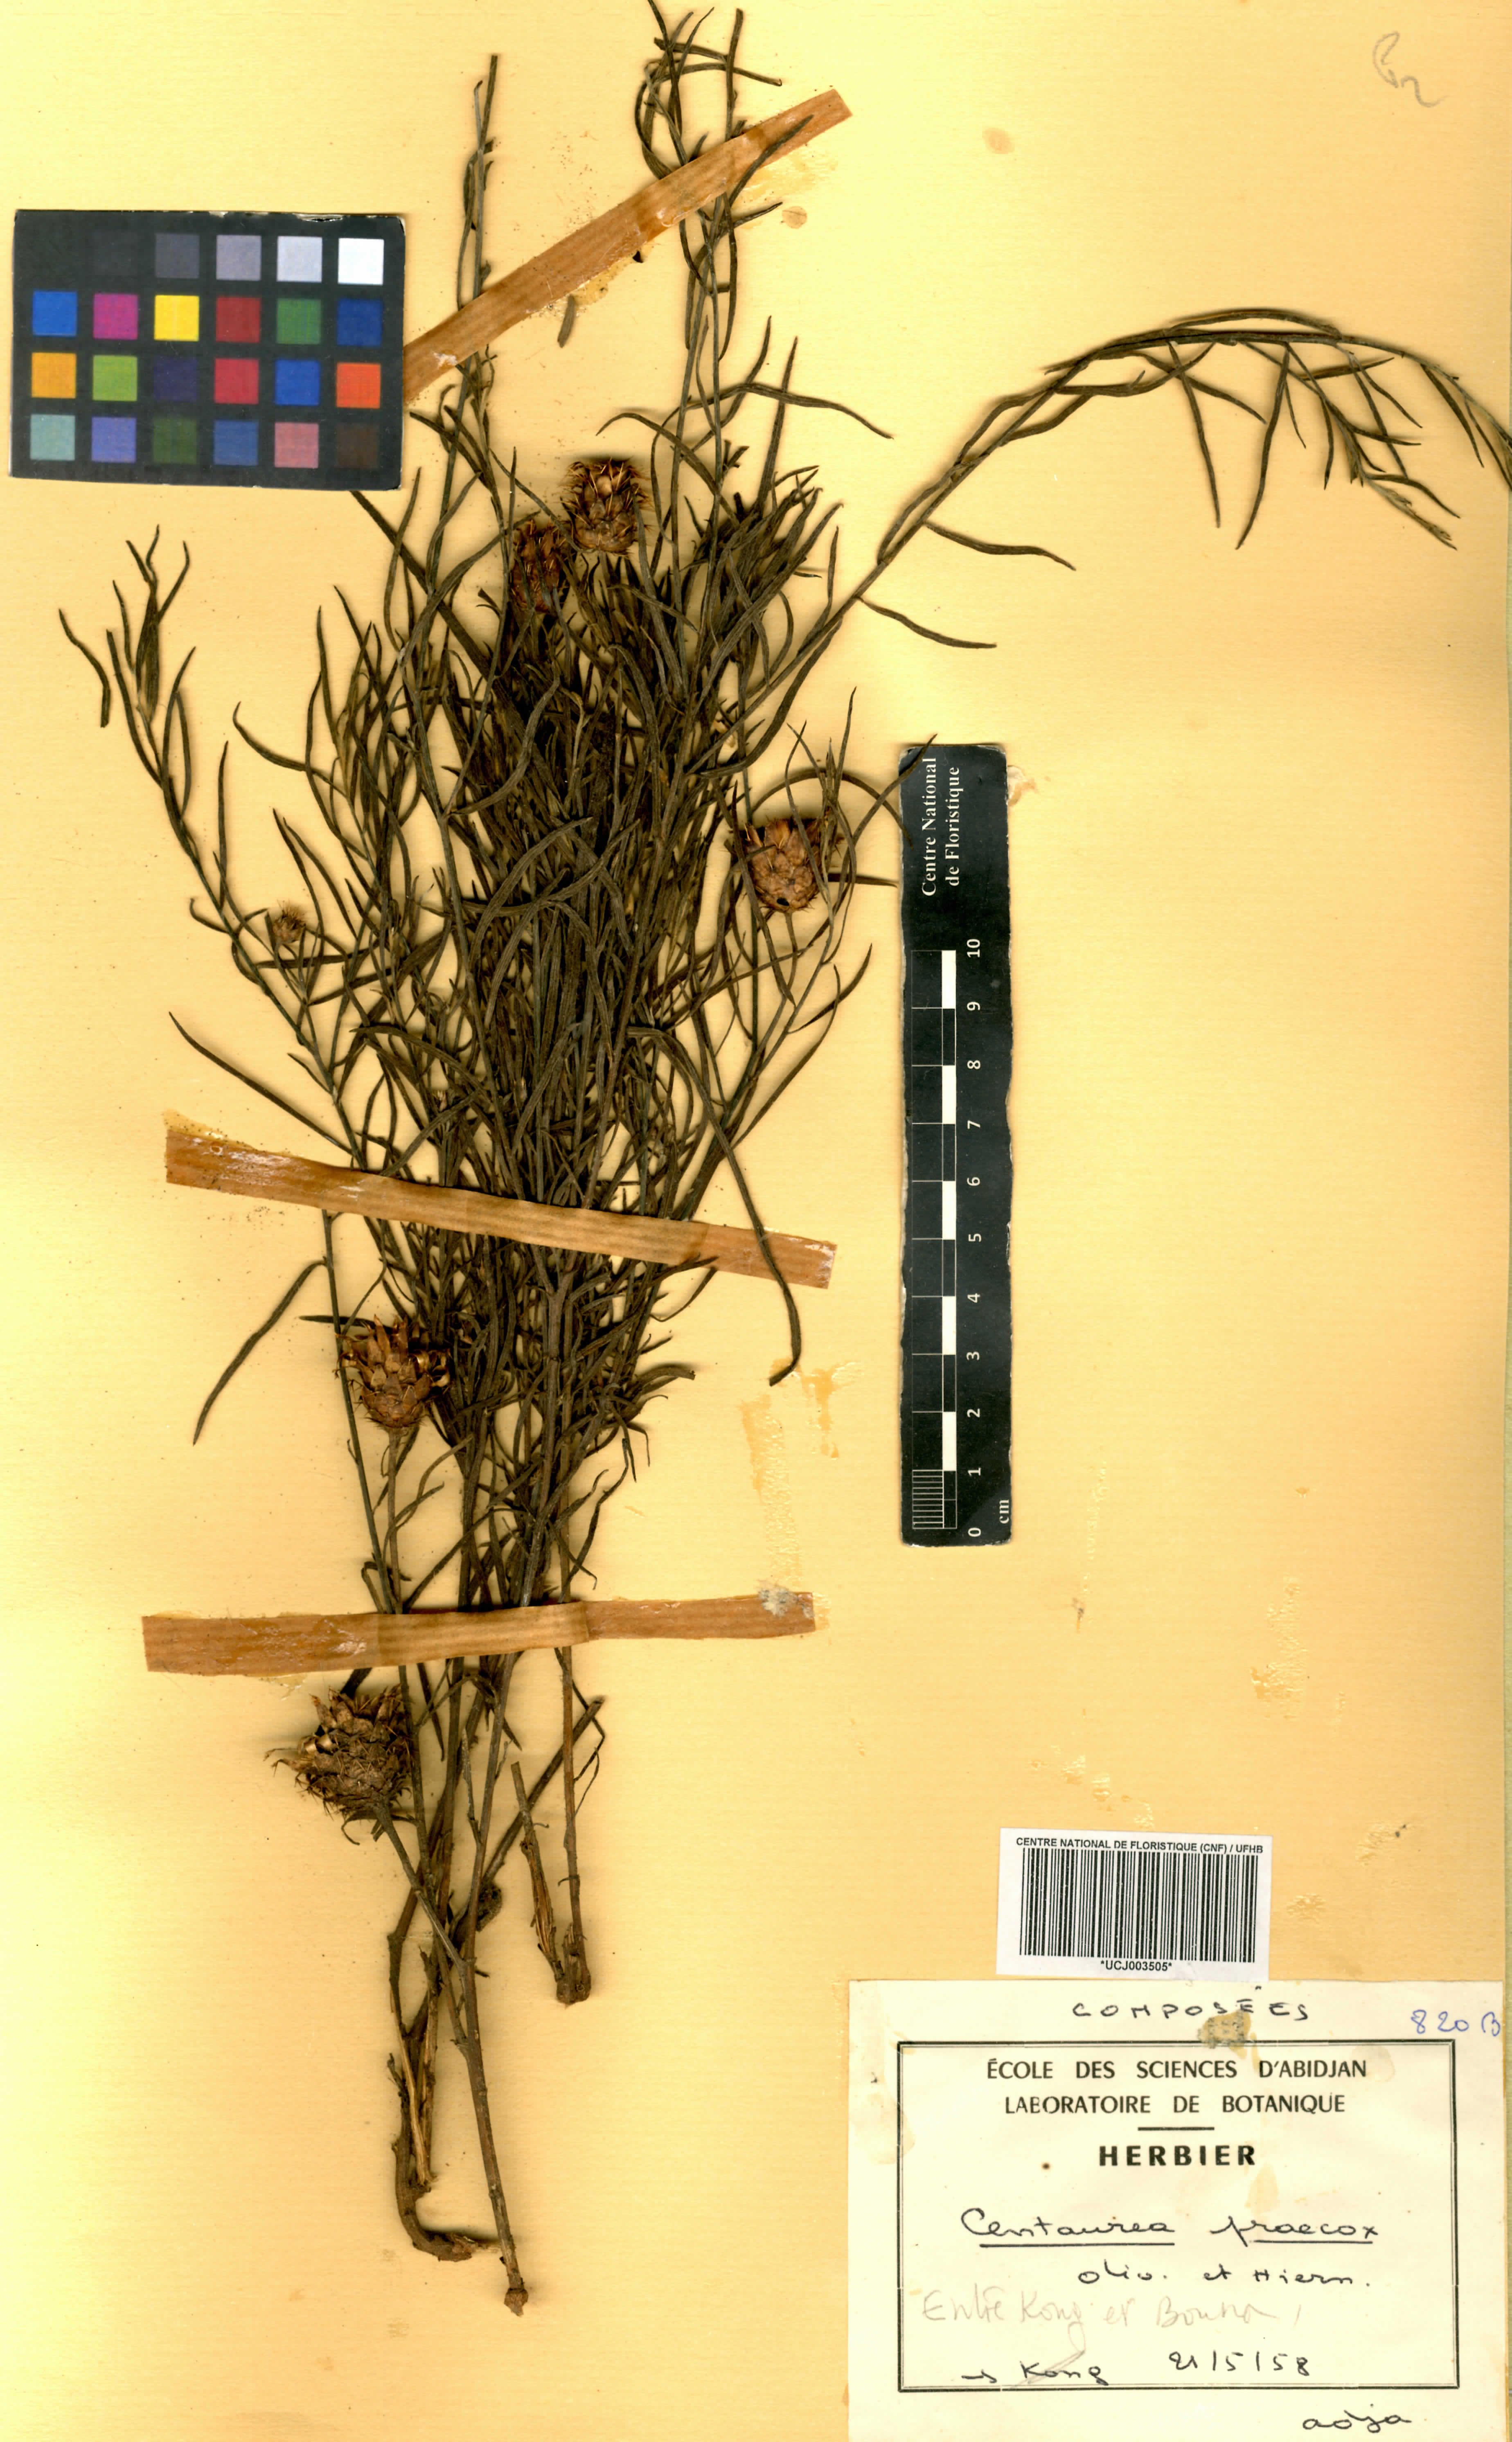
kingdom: Plantae
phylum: Tracheophyta
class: Magnoliopsida
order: Asterales
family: Asteraceae
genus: Centaurea
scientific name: Centaurea praecox
